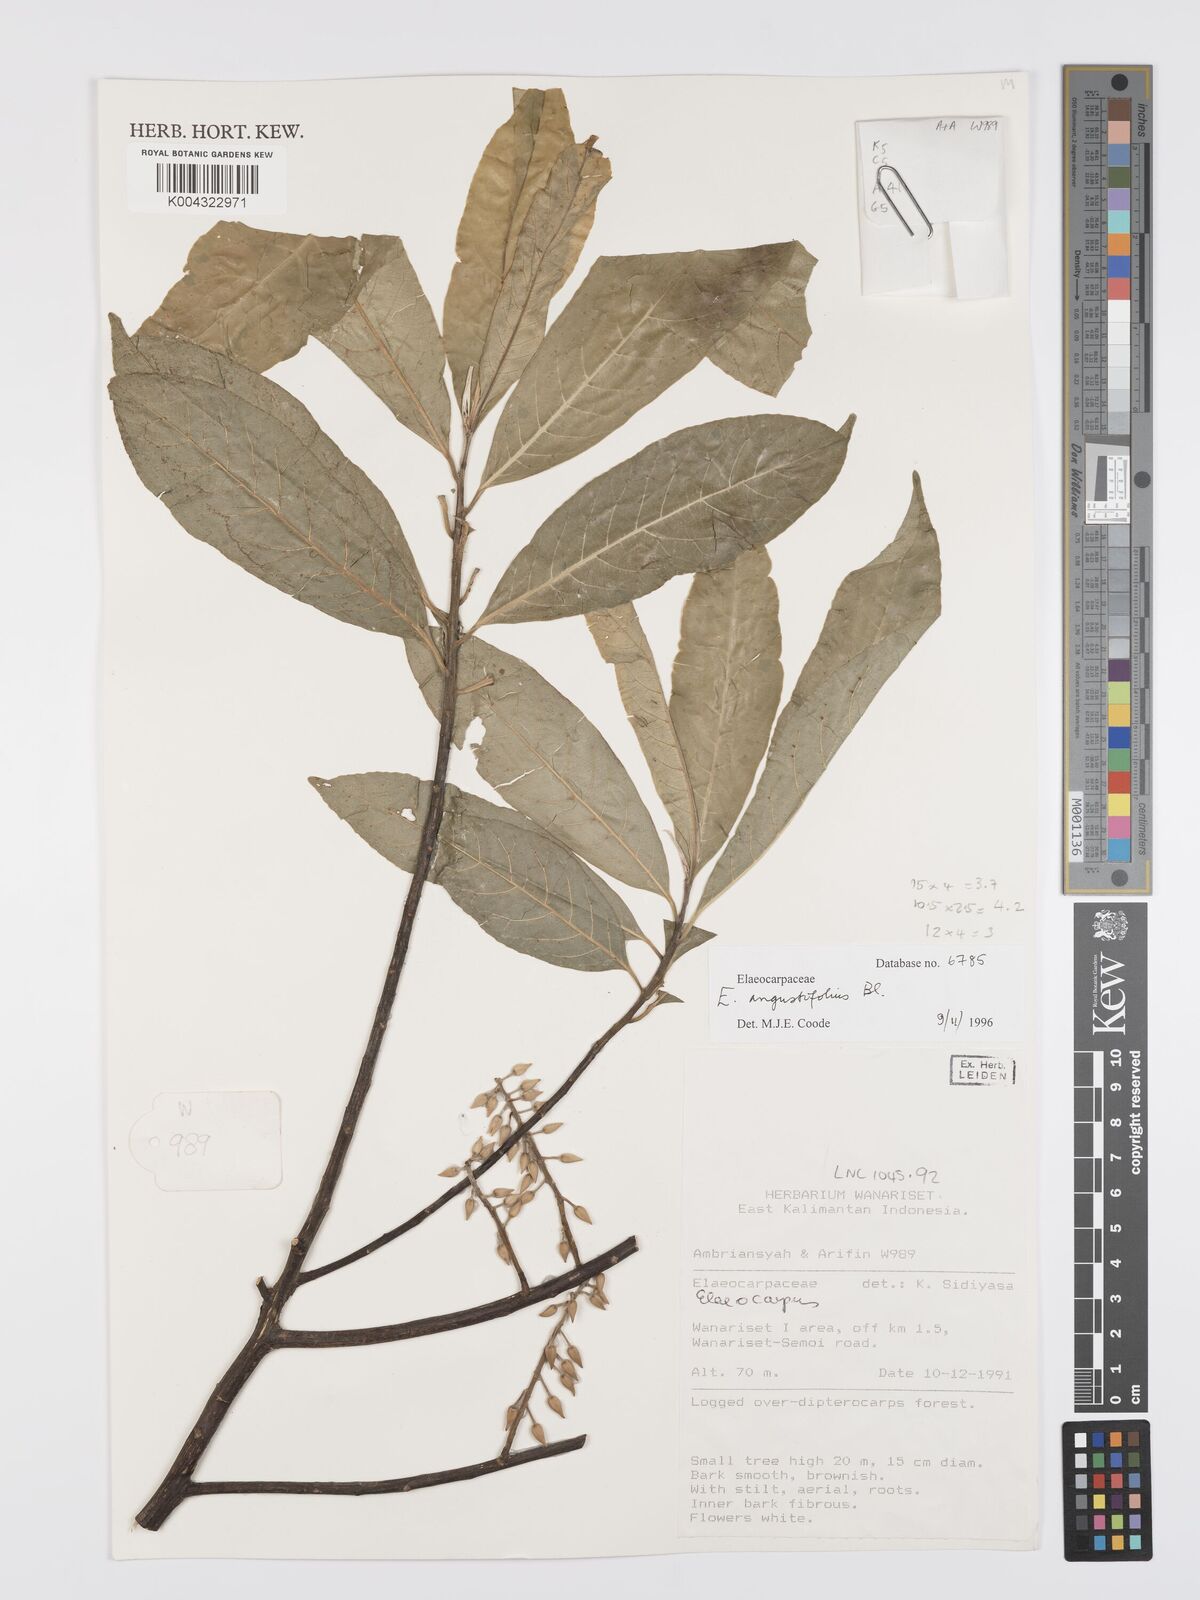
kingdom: Plantae
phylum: Tracheophyta
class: Magnoliopsida
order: Oxalidales
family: Elaeocarpaceae
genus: Elaeocarpus
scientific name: Elaeocarpus
